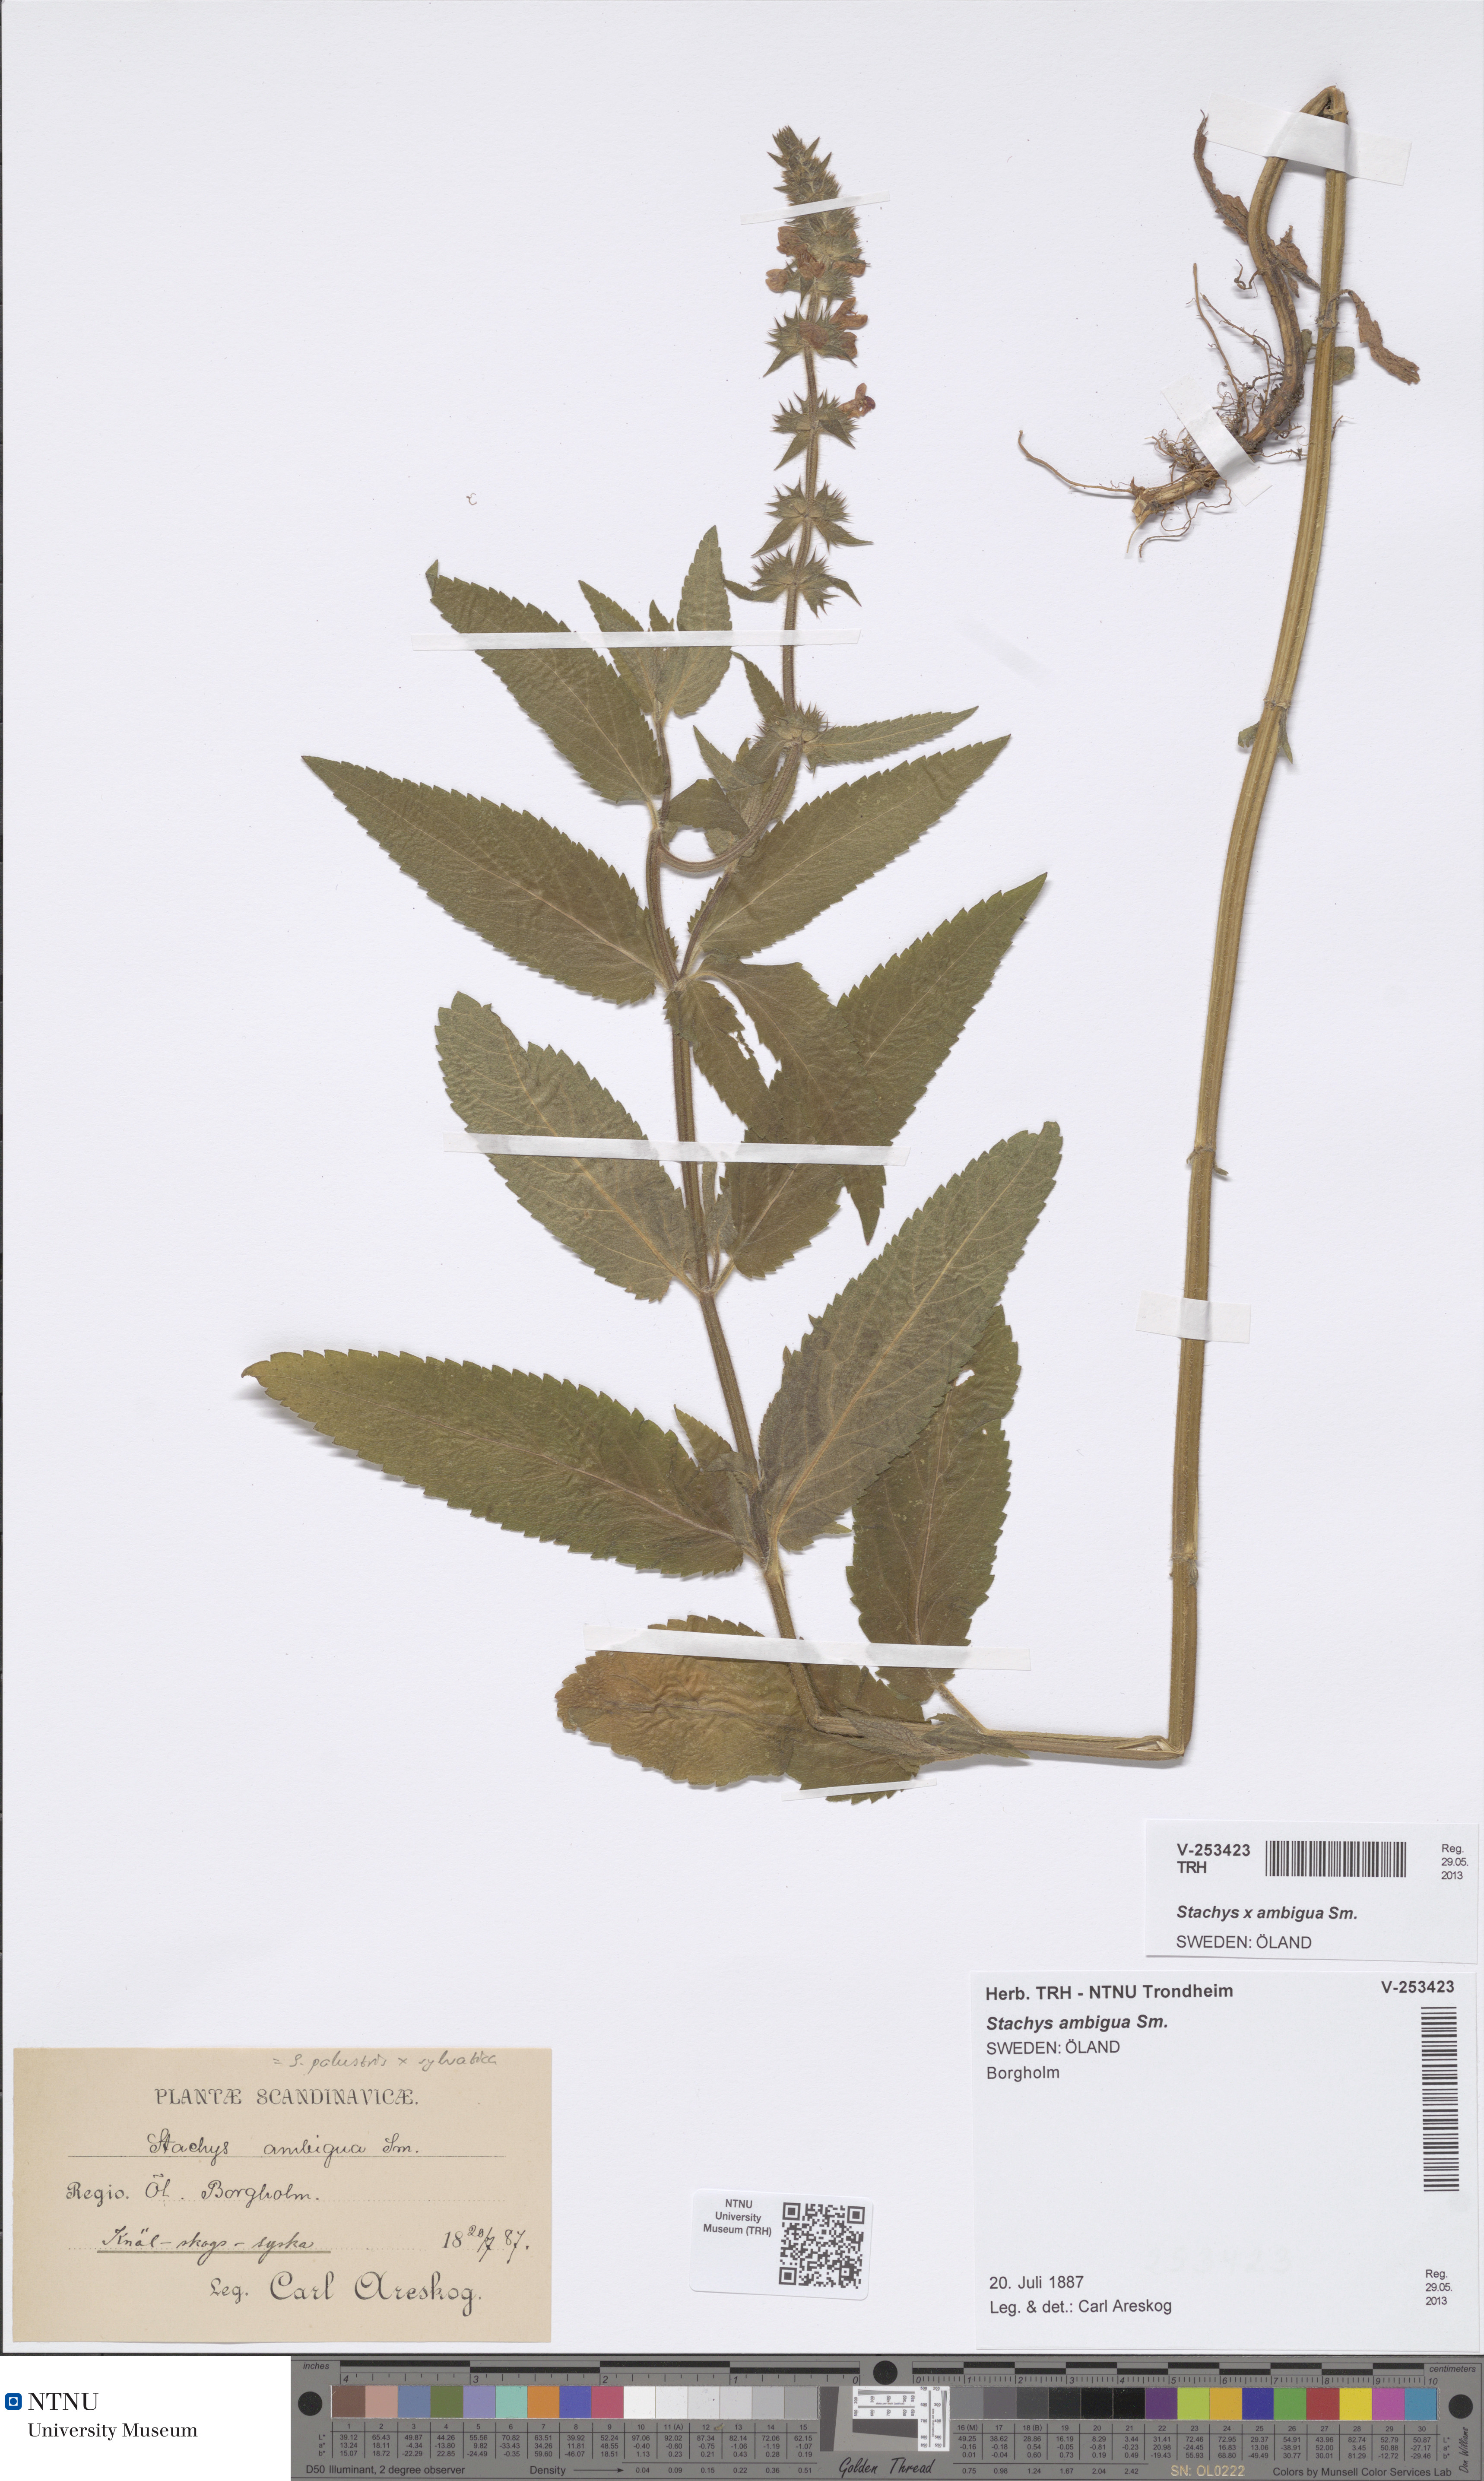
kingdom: Plantae
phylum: Tracheophyta
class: Magnoliopsida
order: Lamiales
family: Lamiaceae
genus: Stachys
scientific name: Stachys ambigua
